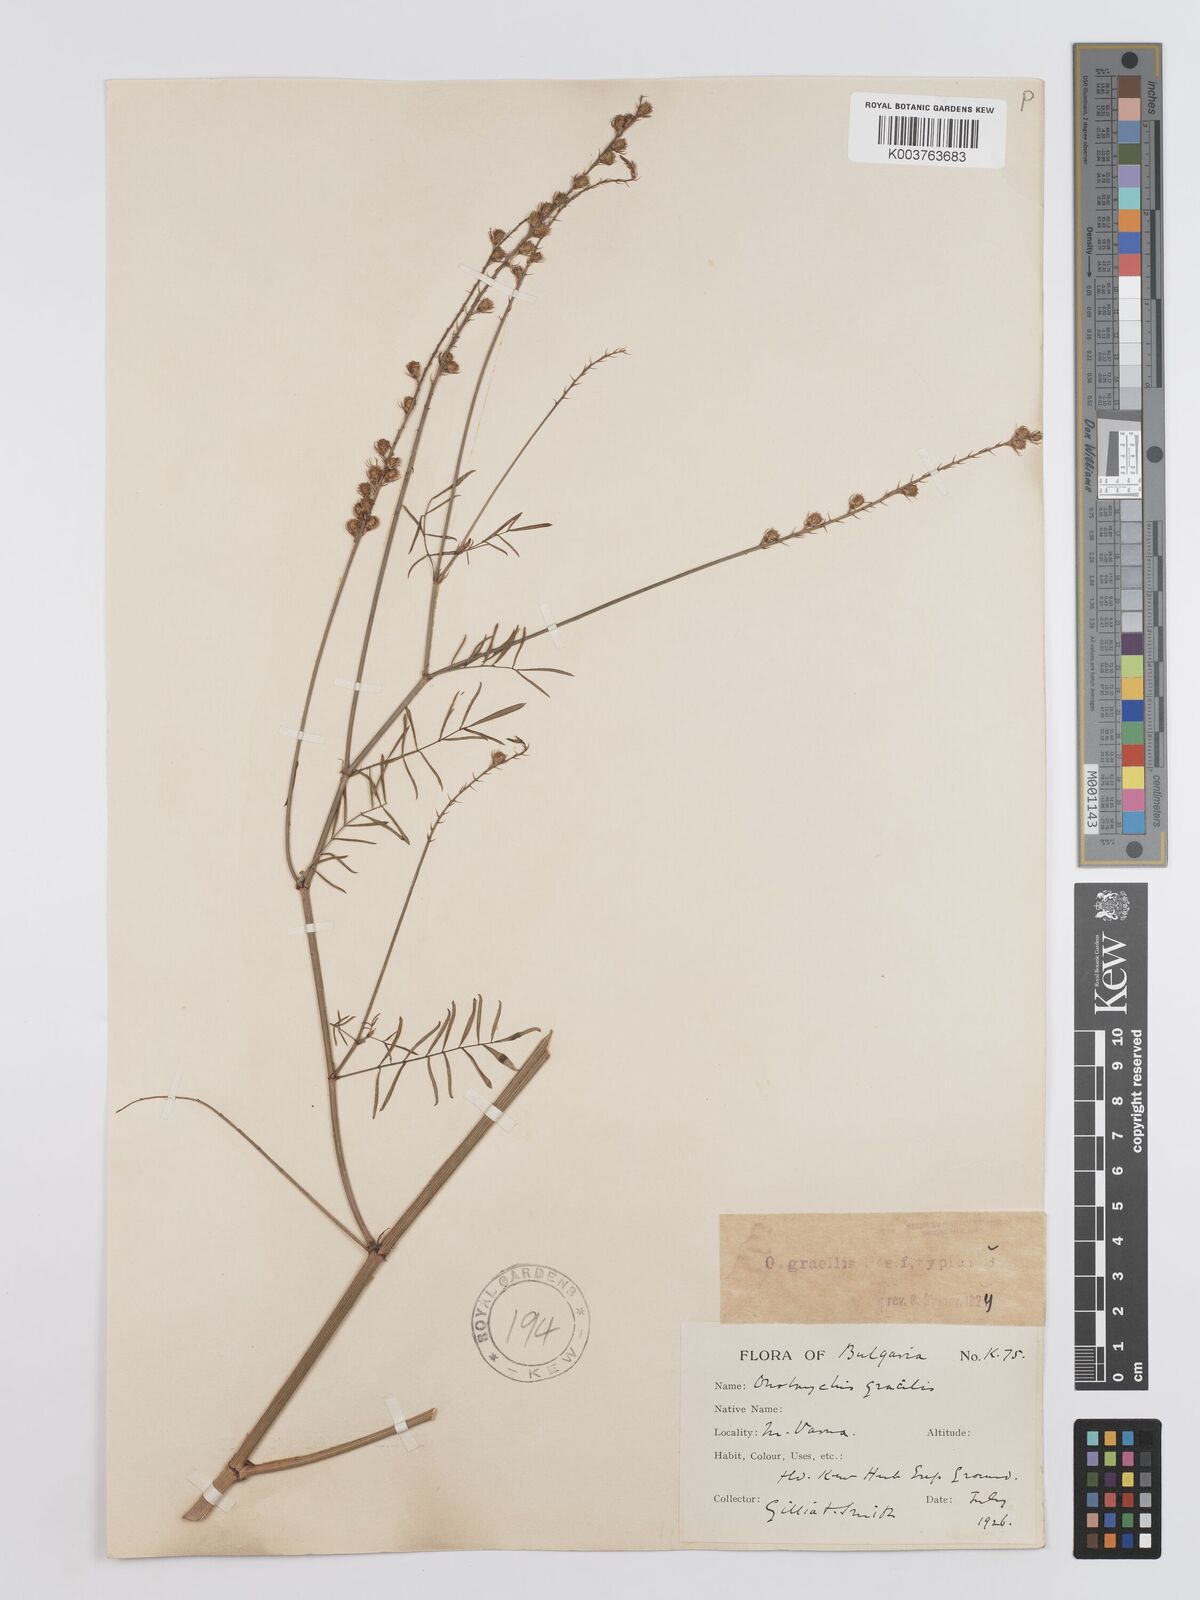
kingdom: Plantae
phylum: Tracheophyta
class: Magnoliopsida
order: Fabales
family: Fabaceae
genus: Onobrychis
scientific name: Onobrychis gracilis
